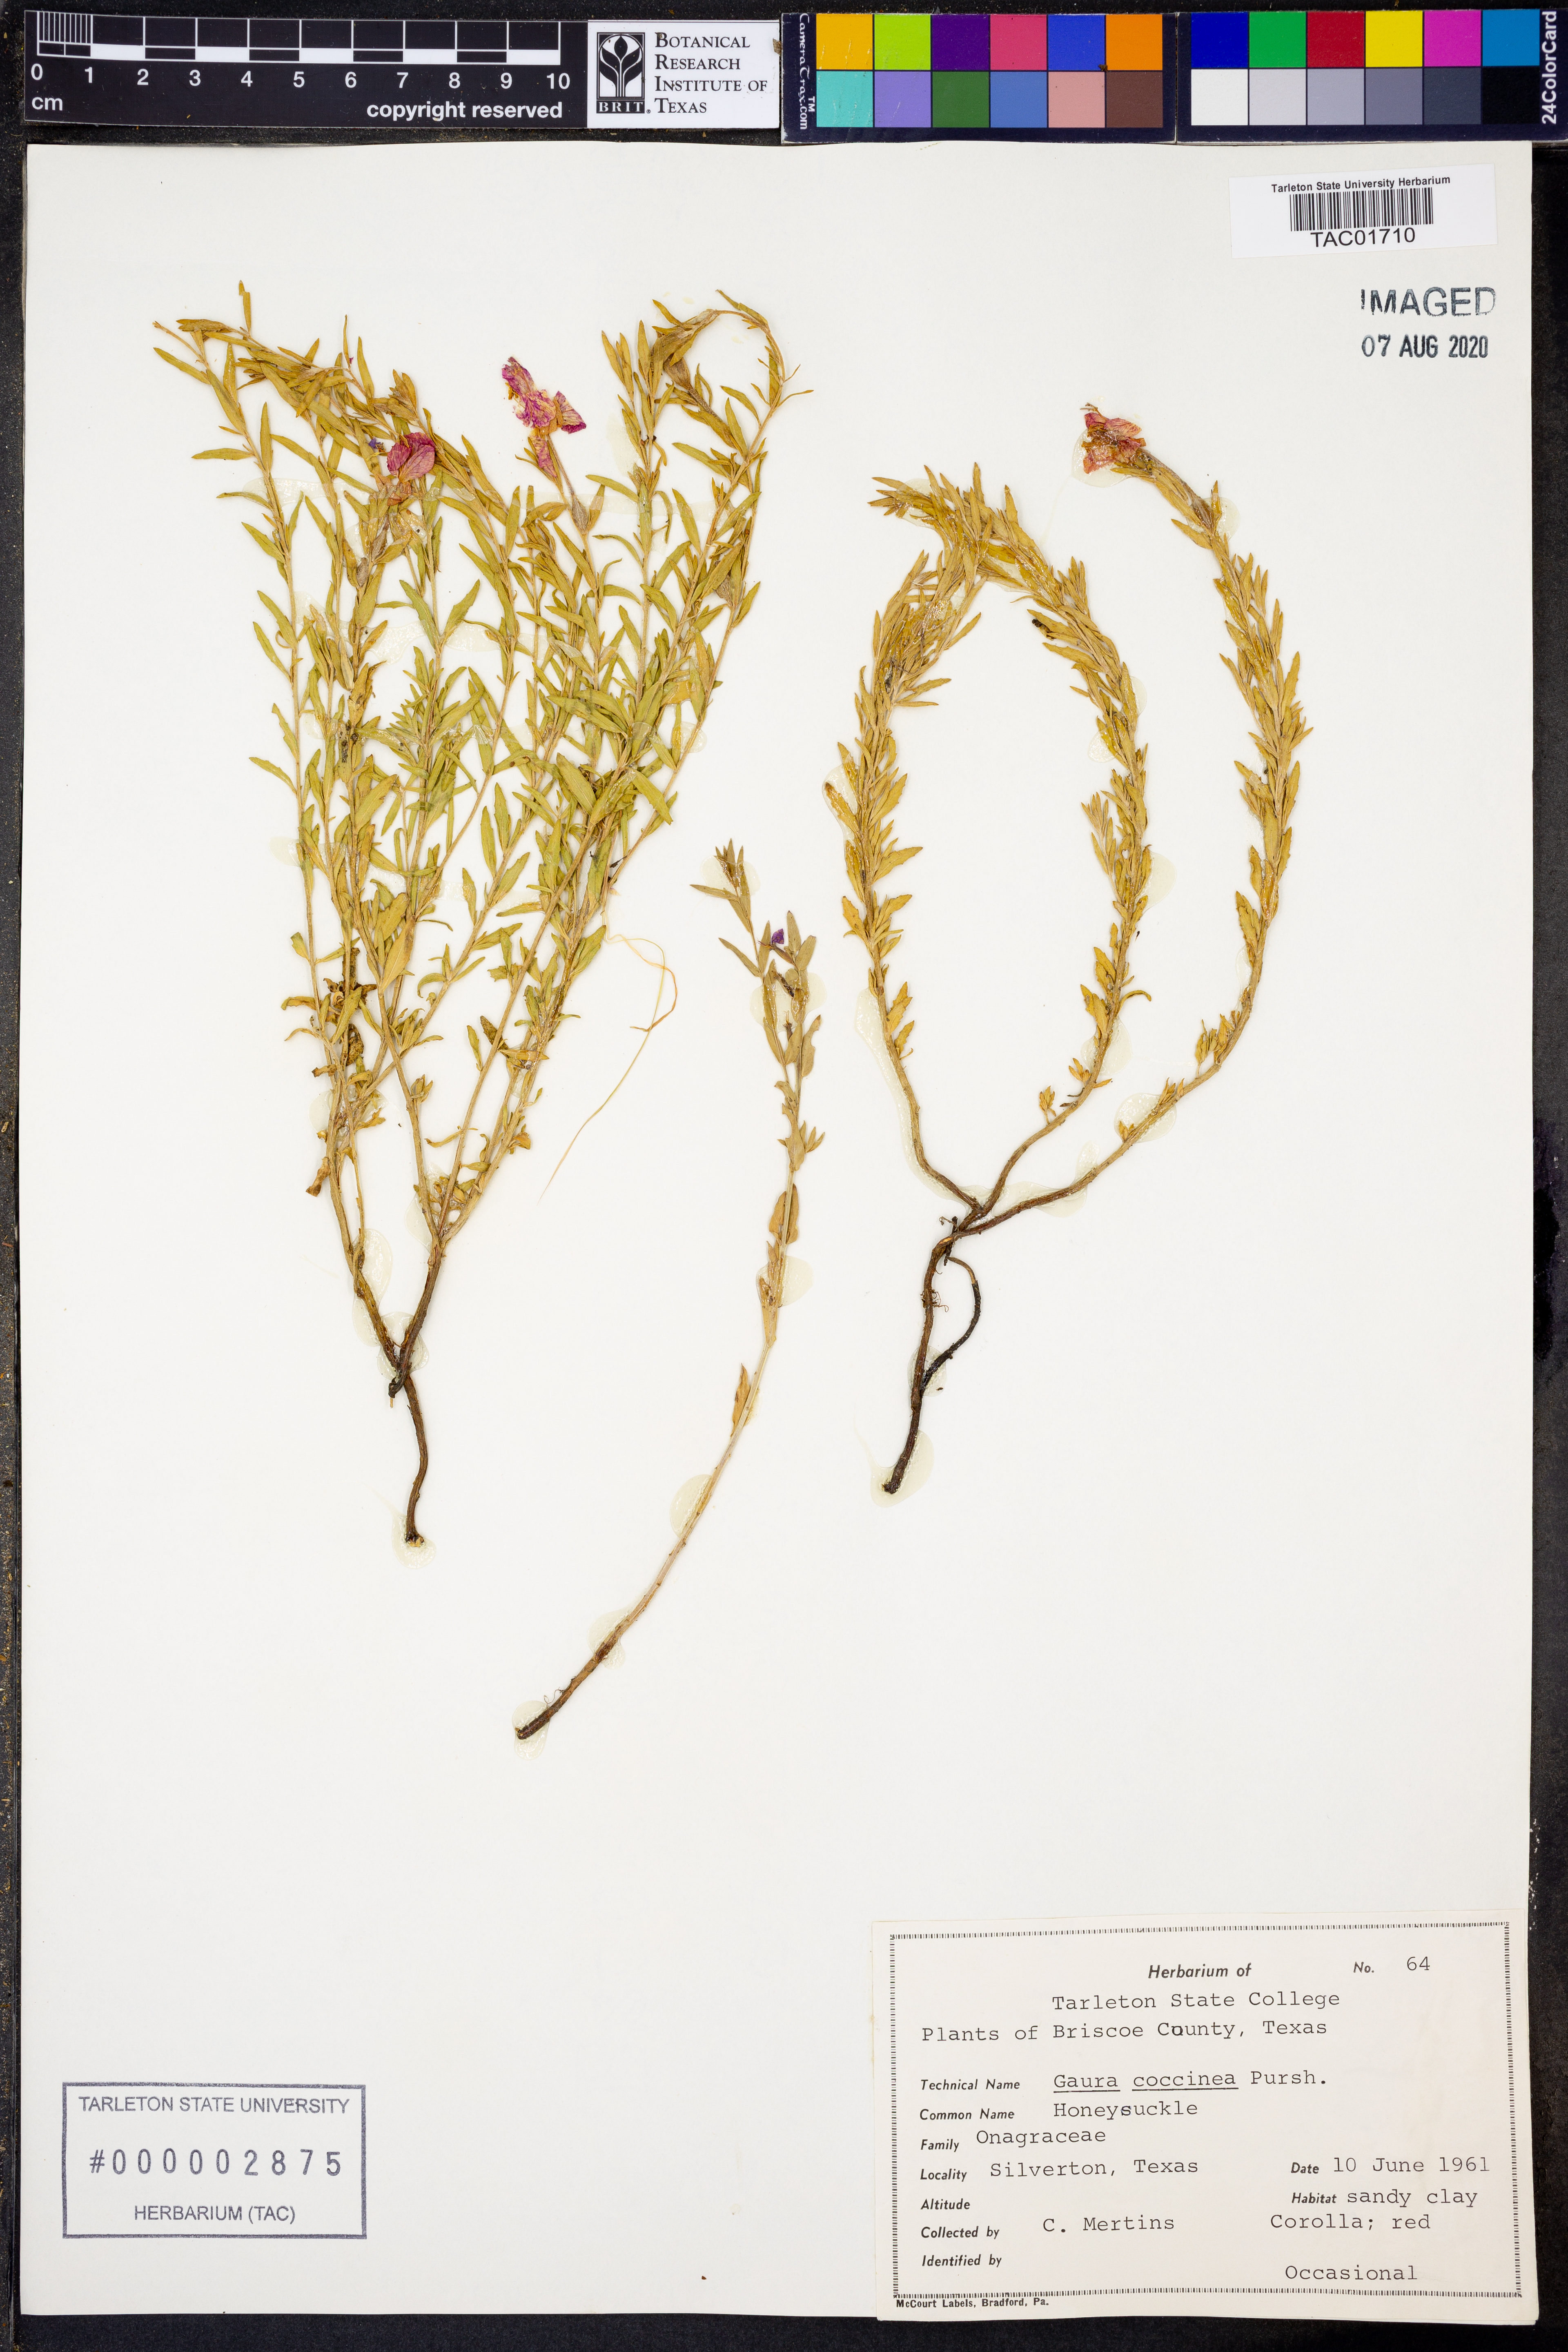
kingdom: Plantae
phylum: Tracheophyta
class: Magnoliopsida
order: Myrtales
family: Onagraceae
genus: Oenothera
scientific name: Oenothera suffrutescens
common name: Scarlet beeblossom
